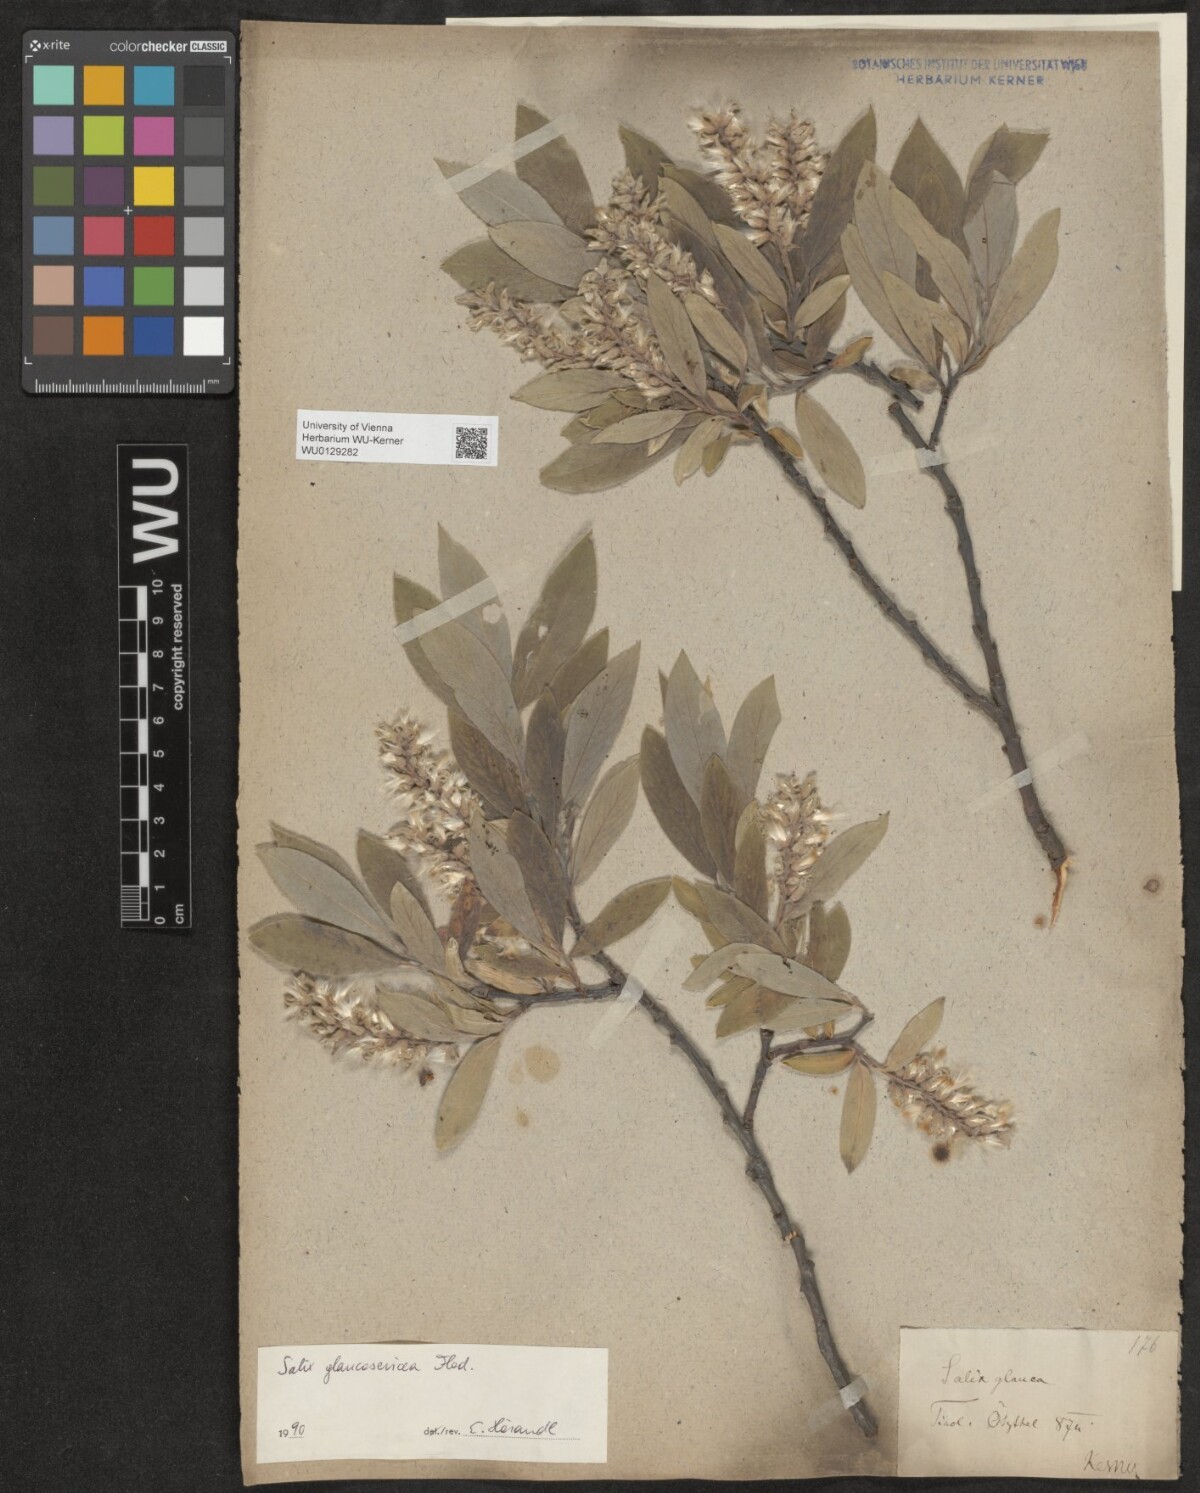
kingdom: Plantae
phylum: Tracheophyta
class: Magnoliopsida
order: Malpighiales
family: Salicaceae
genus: Salix
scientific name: Salix glauca
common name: Glaucous willow
